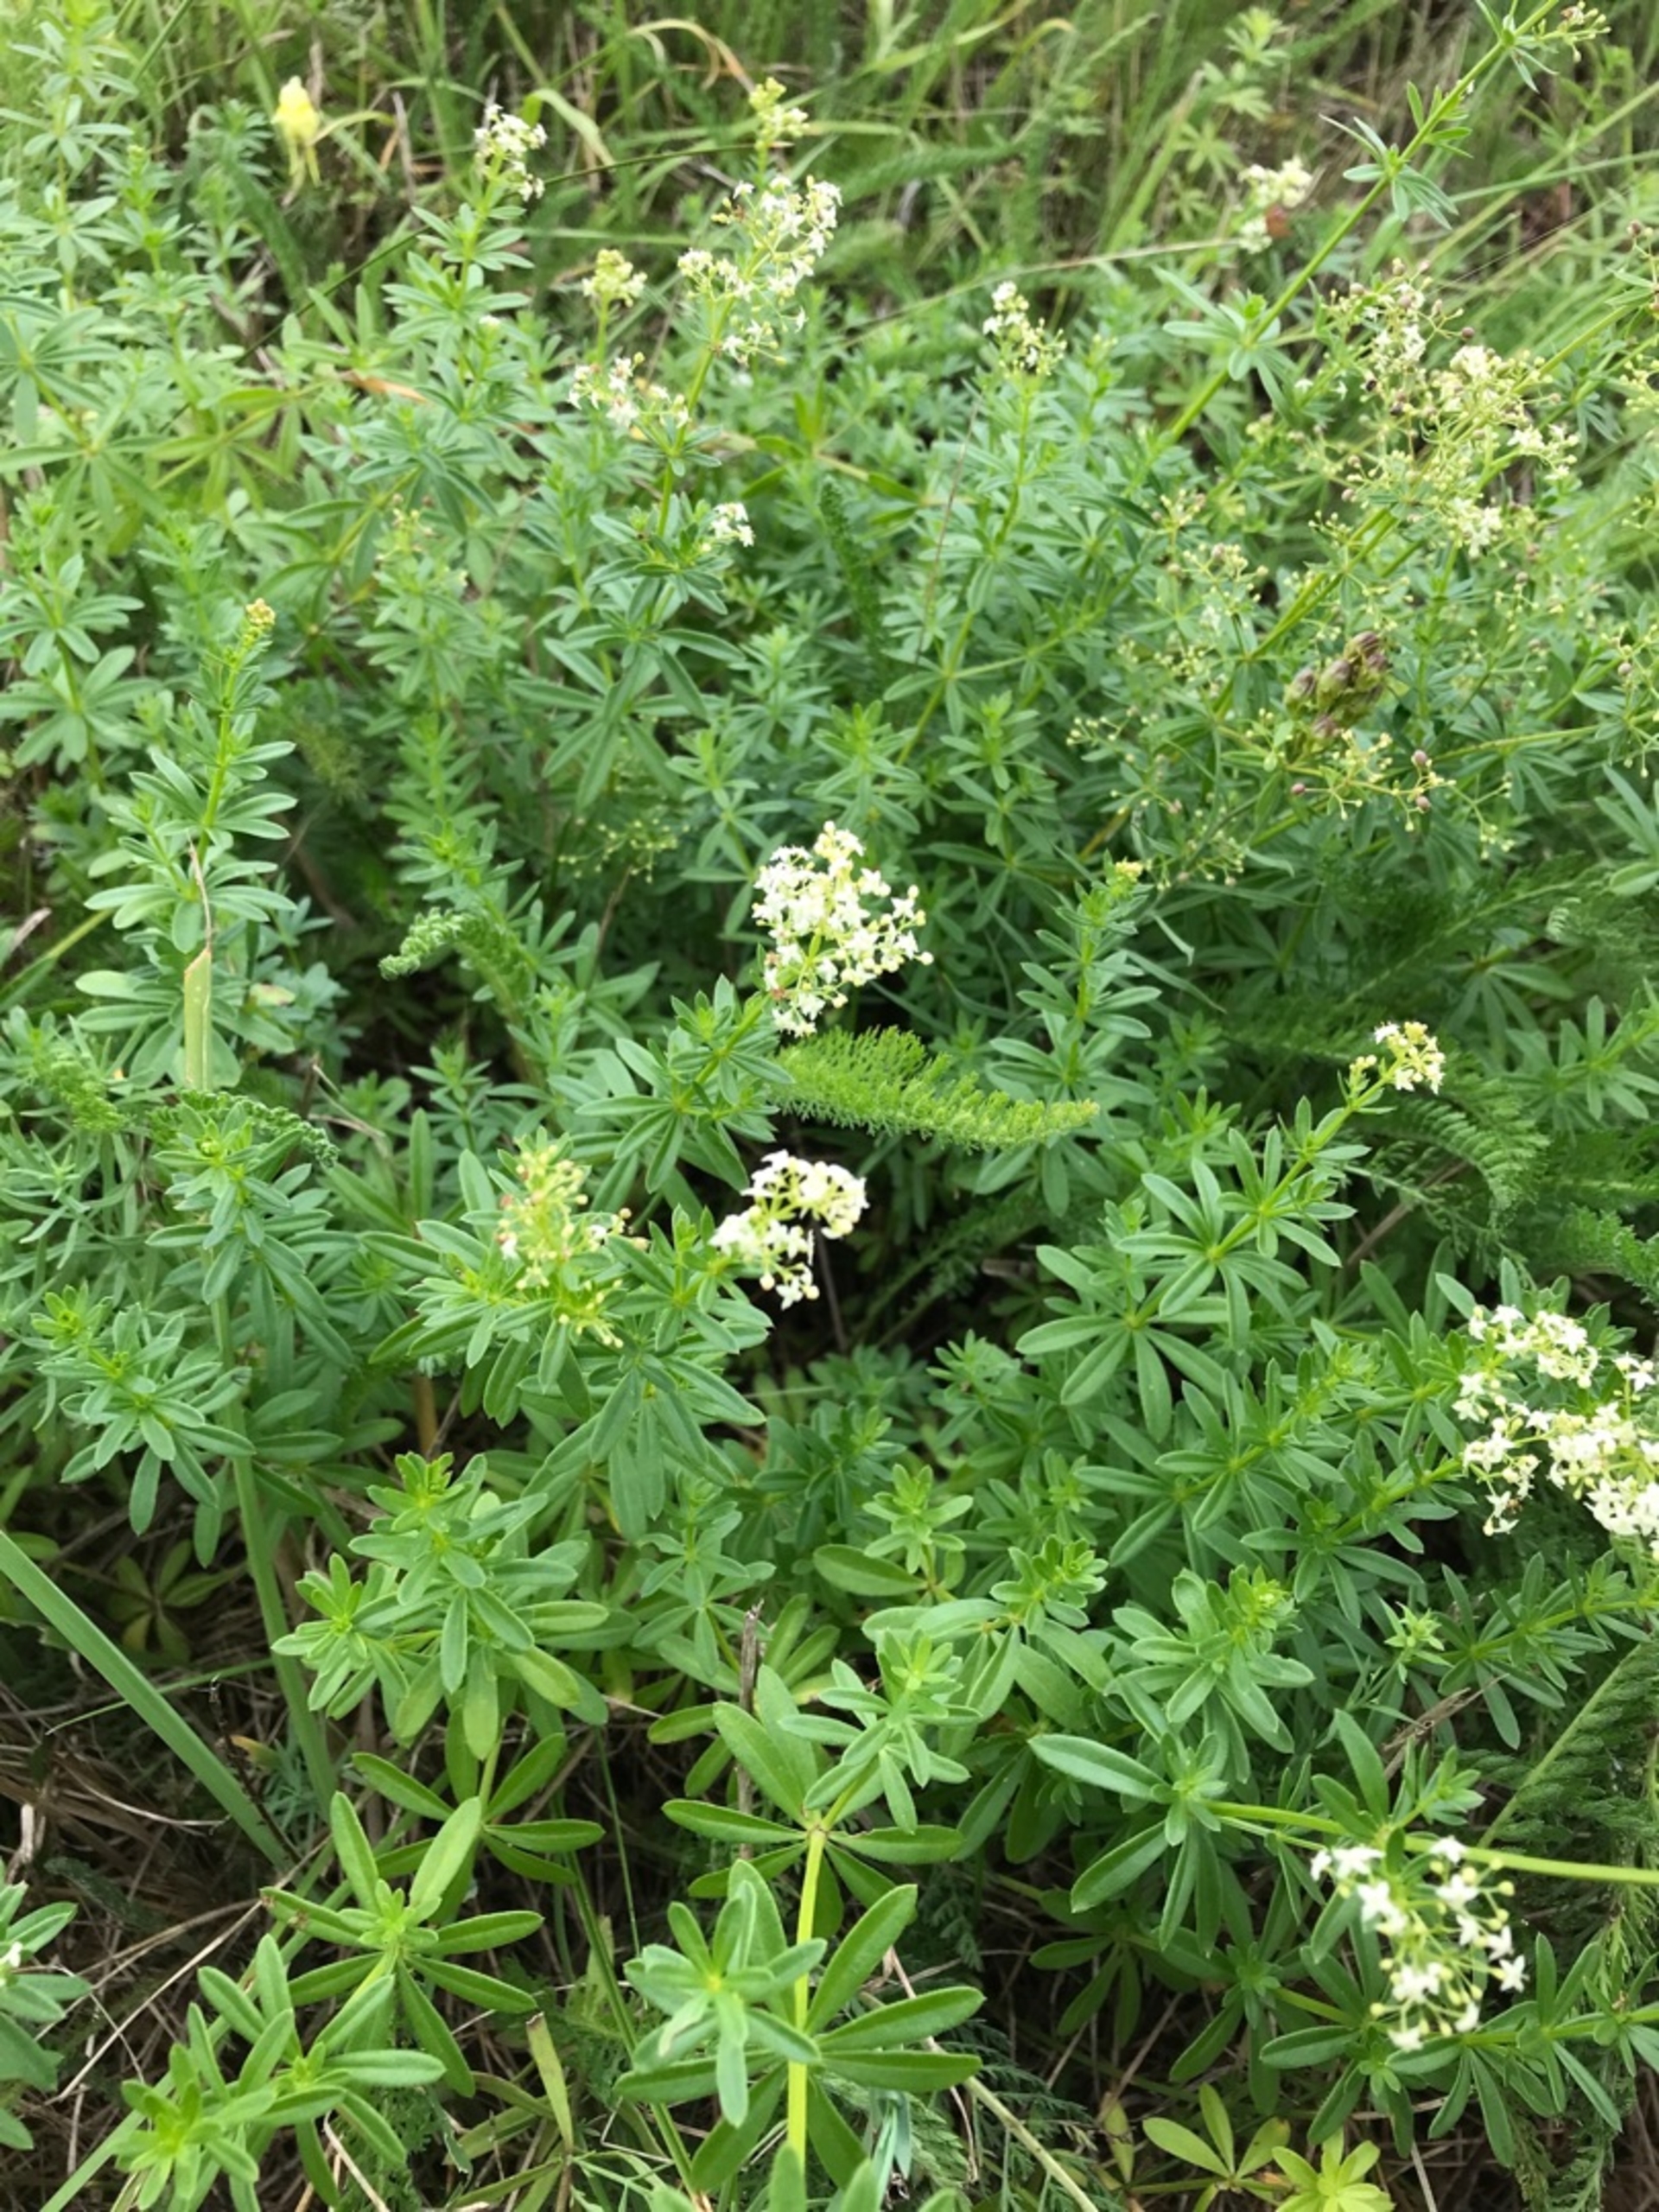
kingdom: Plantae
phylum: Tracheophyta
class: Magnoliopsida
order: Gentianales
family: Rubiaceae
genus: Galium
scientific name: Galium mollugo
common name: Hvid snerre
